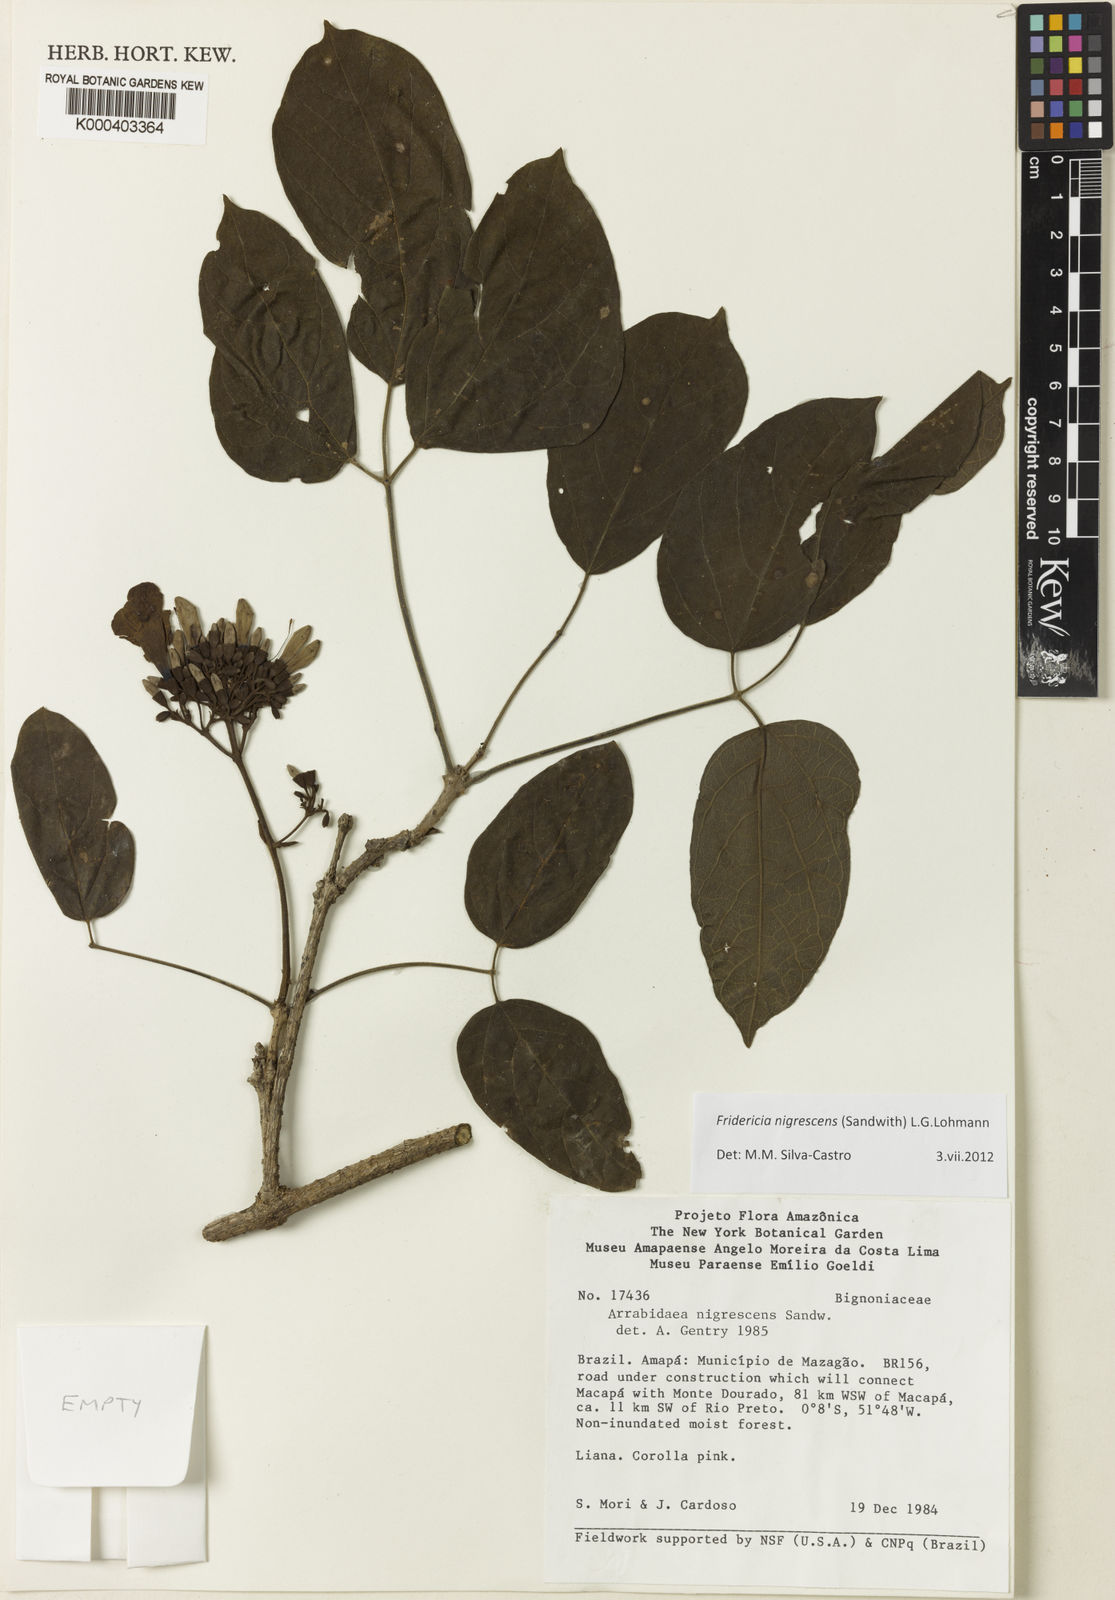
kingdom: Plantae
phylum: Tracheophyta
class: Magnoliopsida
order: Lamiales
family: Bignoniaceae
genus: Fridericia
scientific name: Fridericia nigrescens
